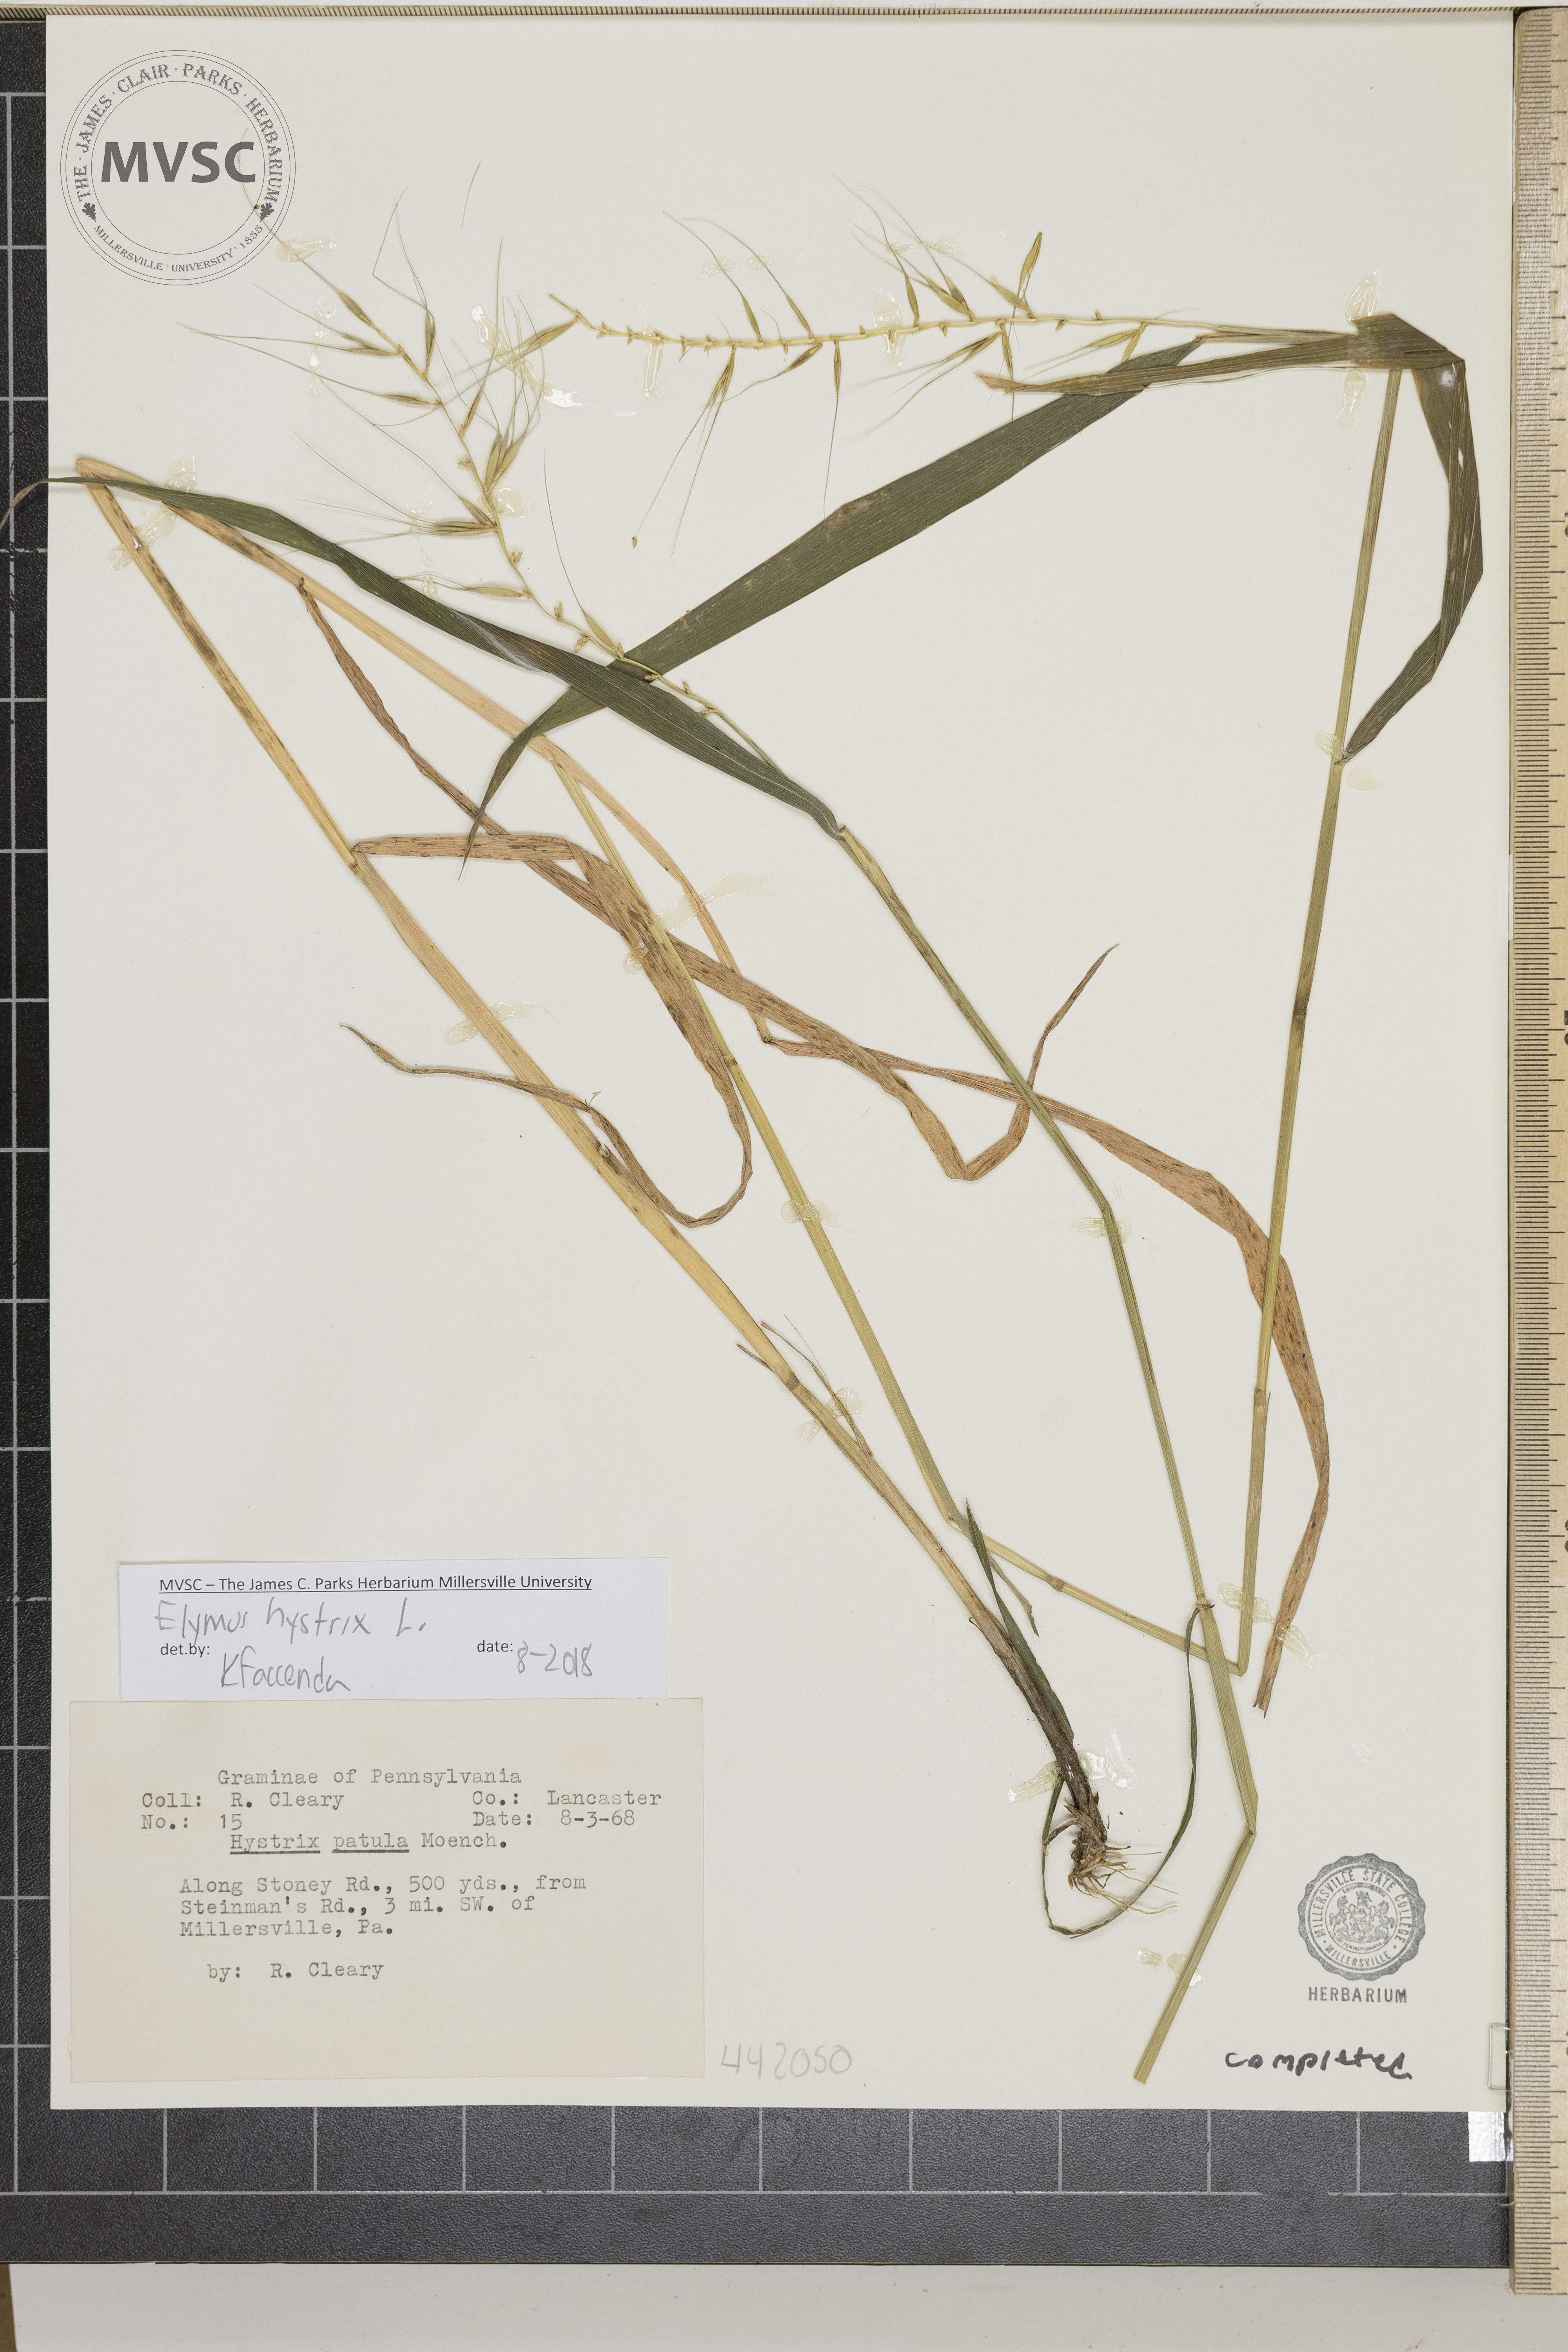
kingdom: Plantae
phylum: Tracheophyta
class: Liliopsida
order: Poales
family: Poaceae
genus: Elymus
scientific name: Elymus hystrix
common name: Bottlebrush grass
